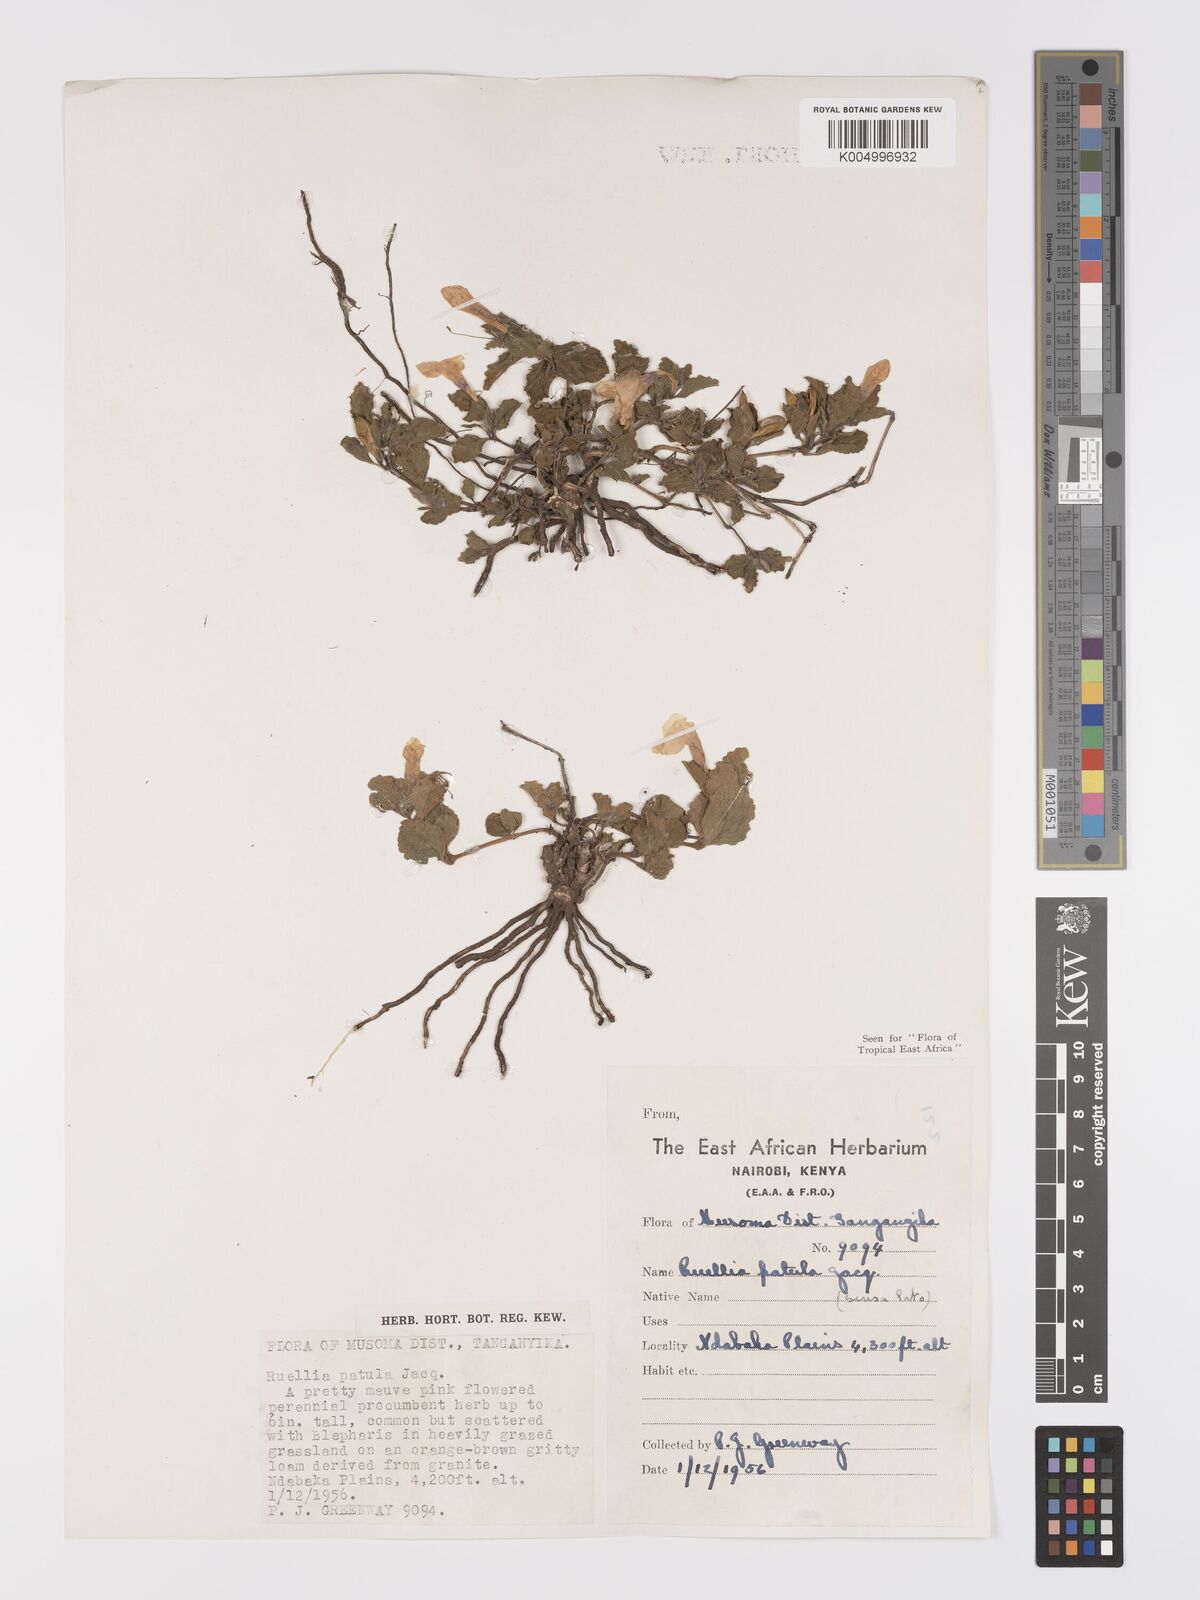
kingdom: Plantae
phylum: Tracheophyta
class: Magnoliopsida
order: Lamiales
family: Acanthaceae
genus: Ruellia
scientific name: Ruellia patula
